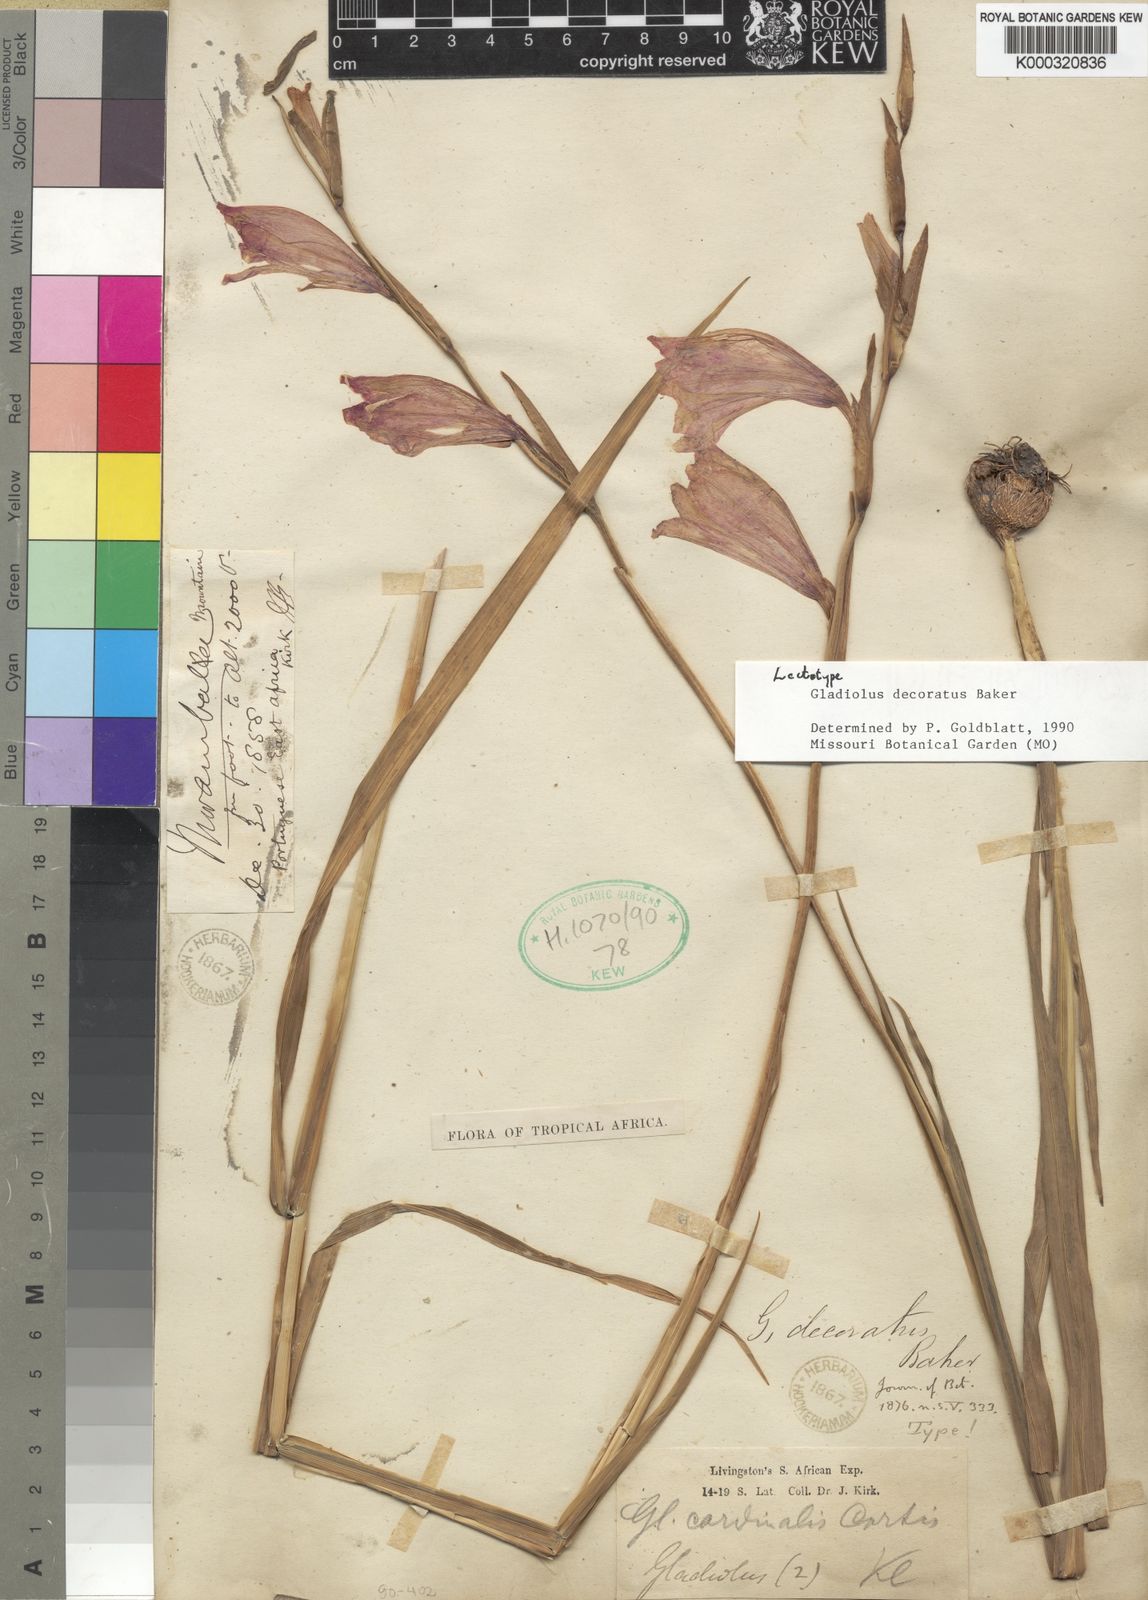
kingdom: Plantae
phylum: Tracheophyta
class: Liliopsida
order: Asparagales
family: Iridaceae
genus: Gladiolus
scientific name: Gladiolus decoratus
